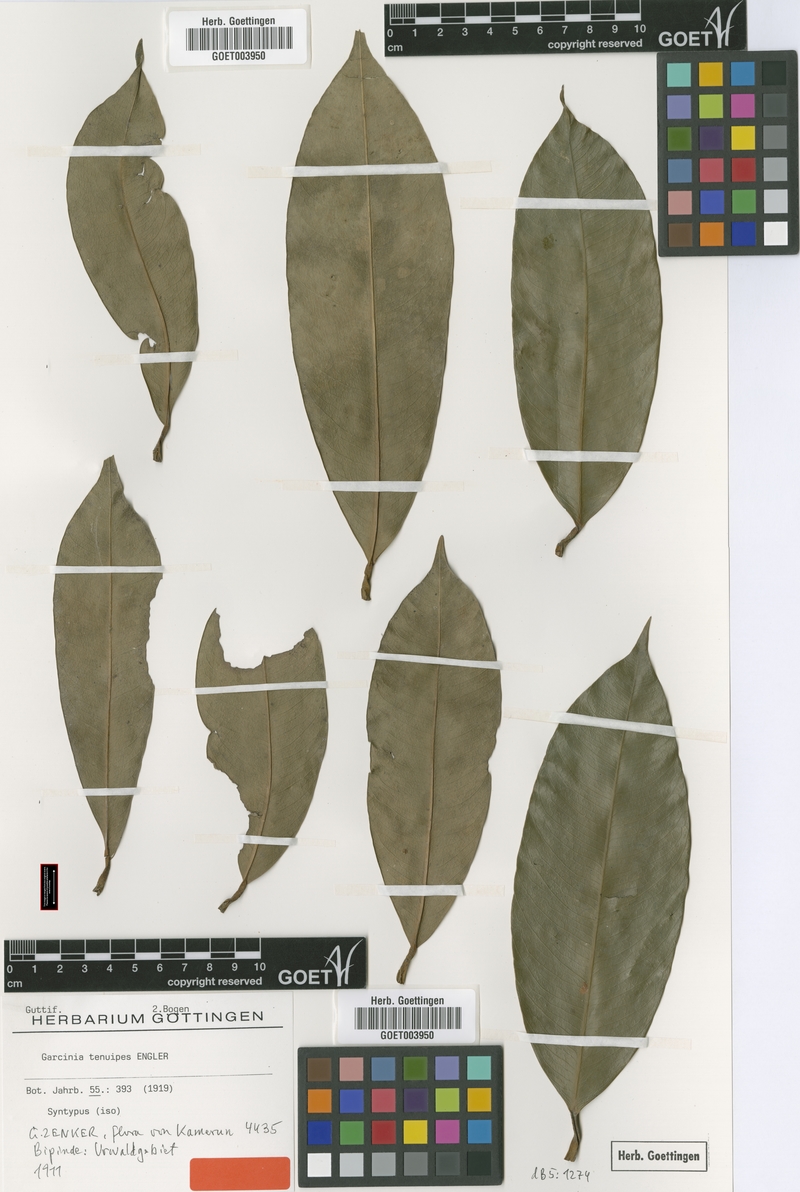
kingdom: Plantae
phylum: Tracheophyta
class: Magnoliopsida
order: Malpighiales
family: Clusiaceae
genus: Garcinia
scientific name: Garcinia smeathmannii
